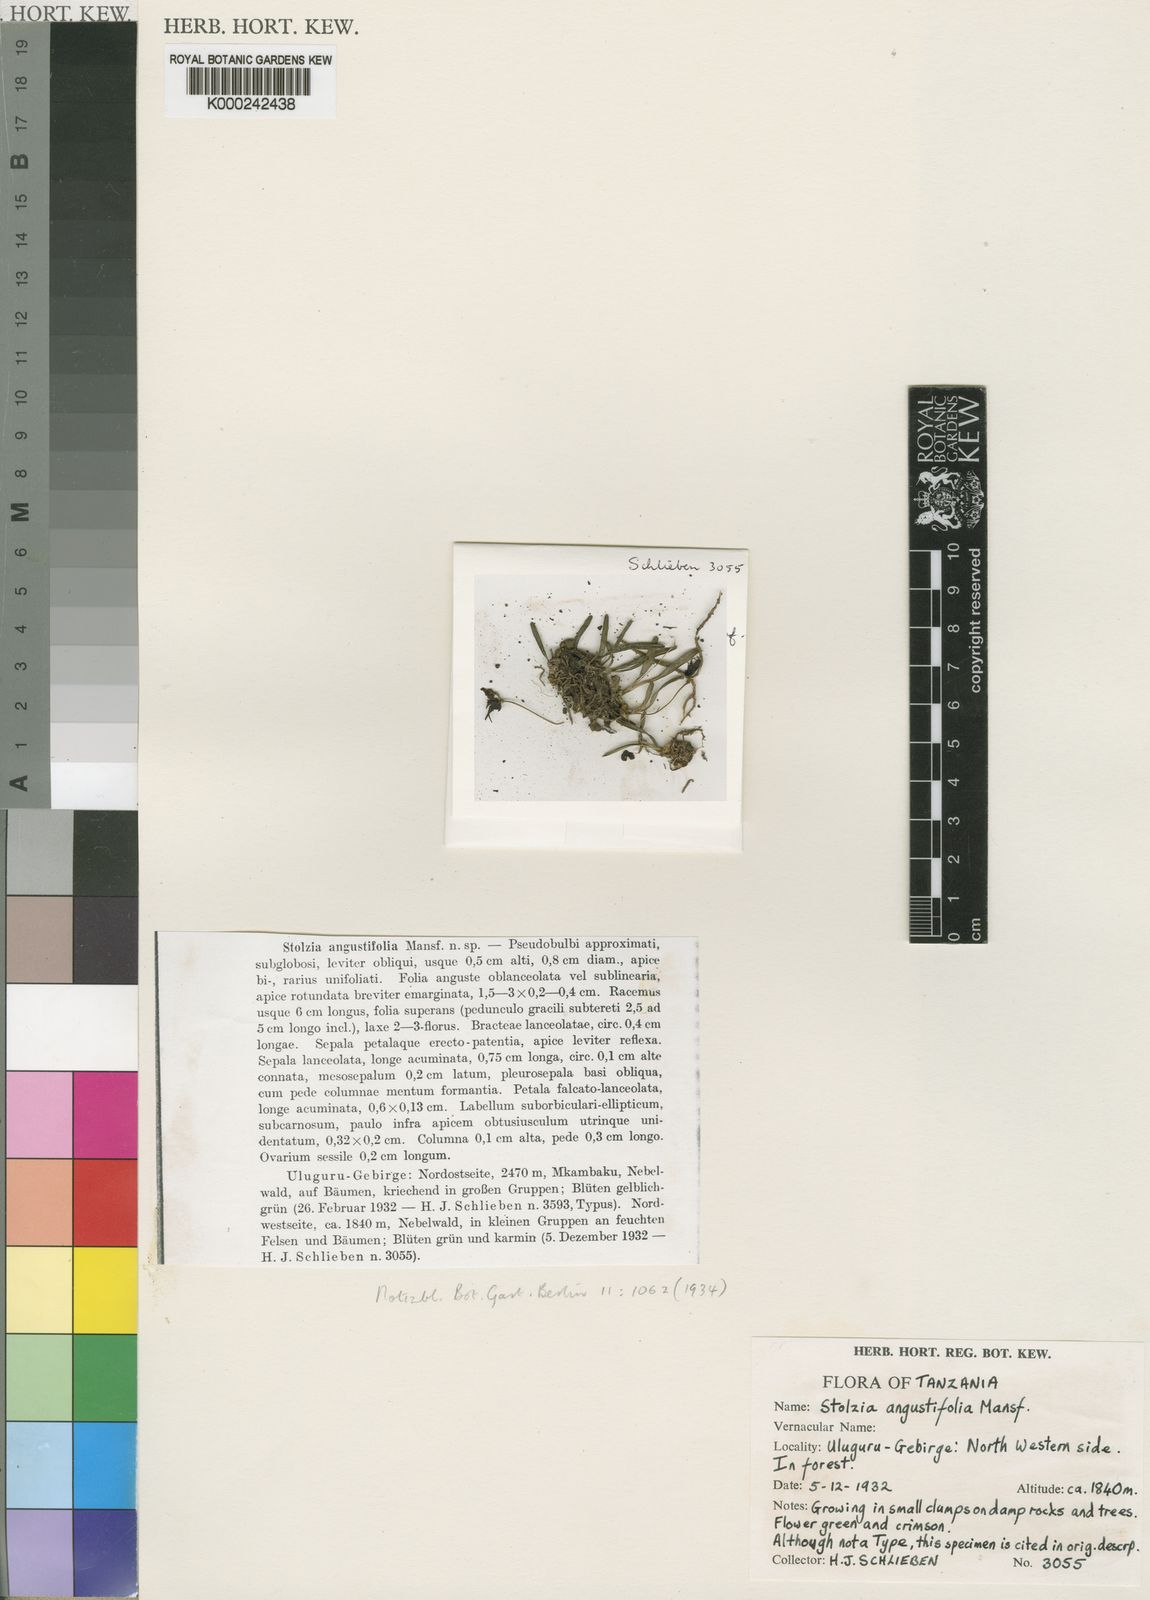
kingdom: Plantae
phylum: Tracheophyta
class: Liliopsida
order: Asparagales
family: Orchidaceae
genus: Porpax
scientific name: Porpax angustifolia
